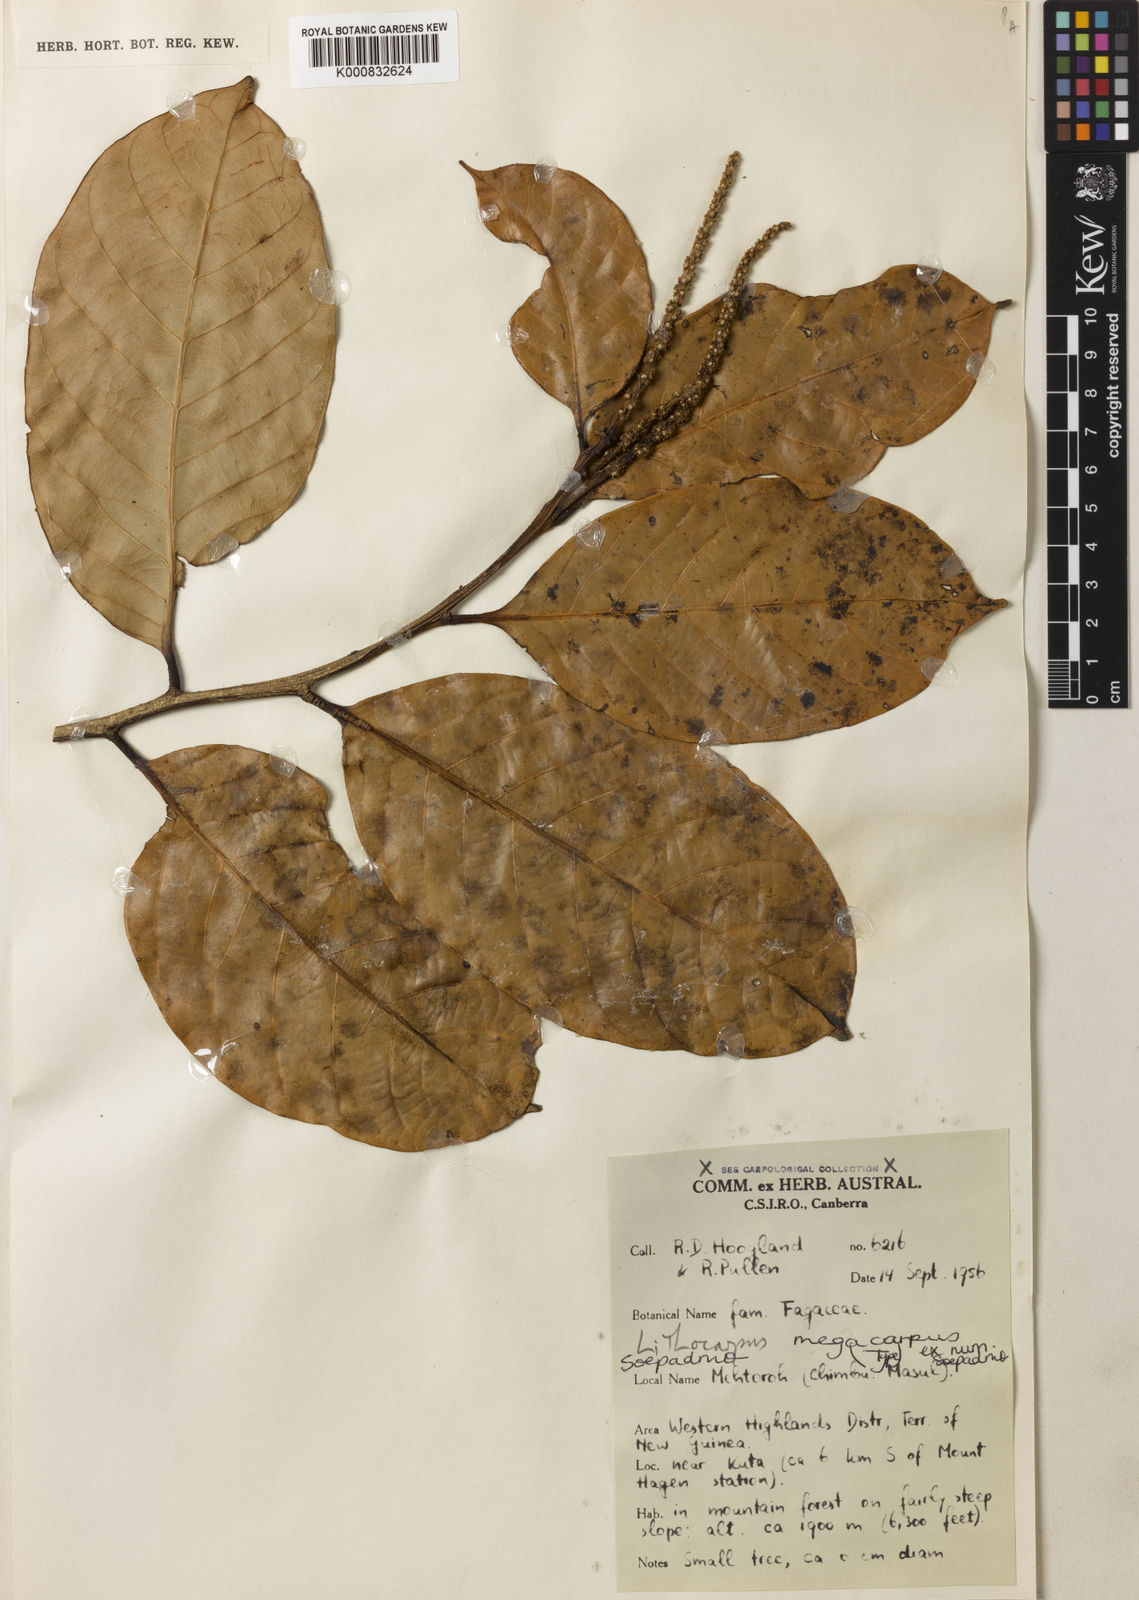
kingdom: Plantae
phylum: Tracheophyta
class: Magnoliopsida
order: Fagales
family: Fagaceae
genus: Lithocarpus
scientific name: Lithocarpus megacarpus
